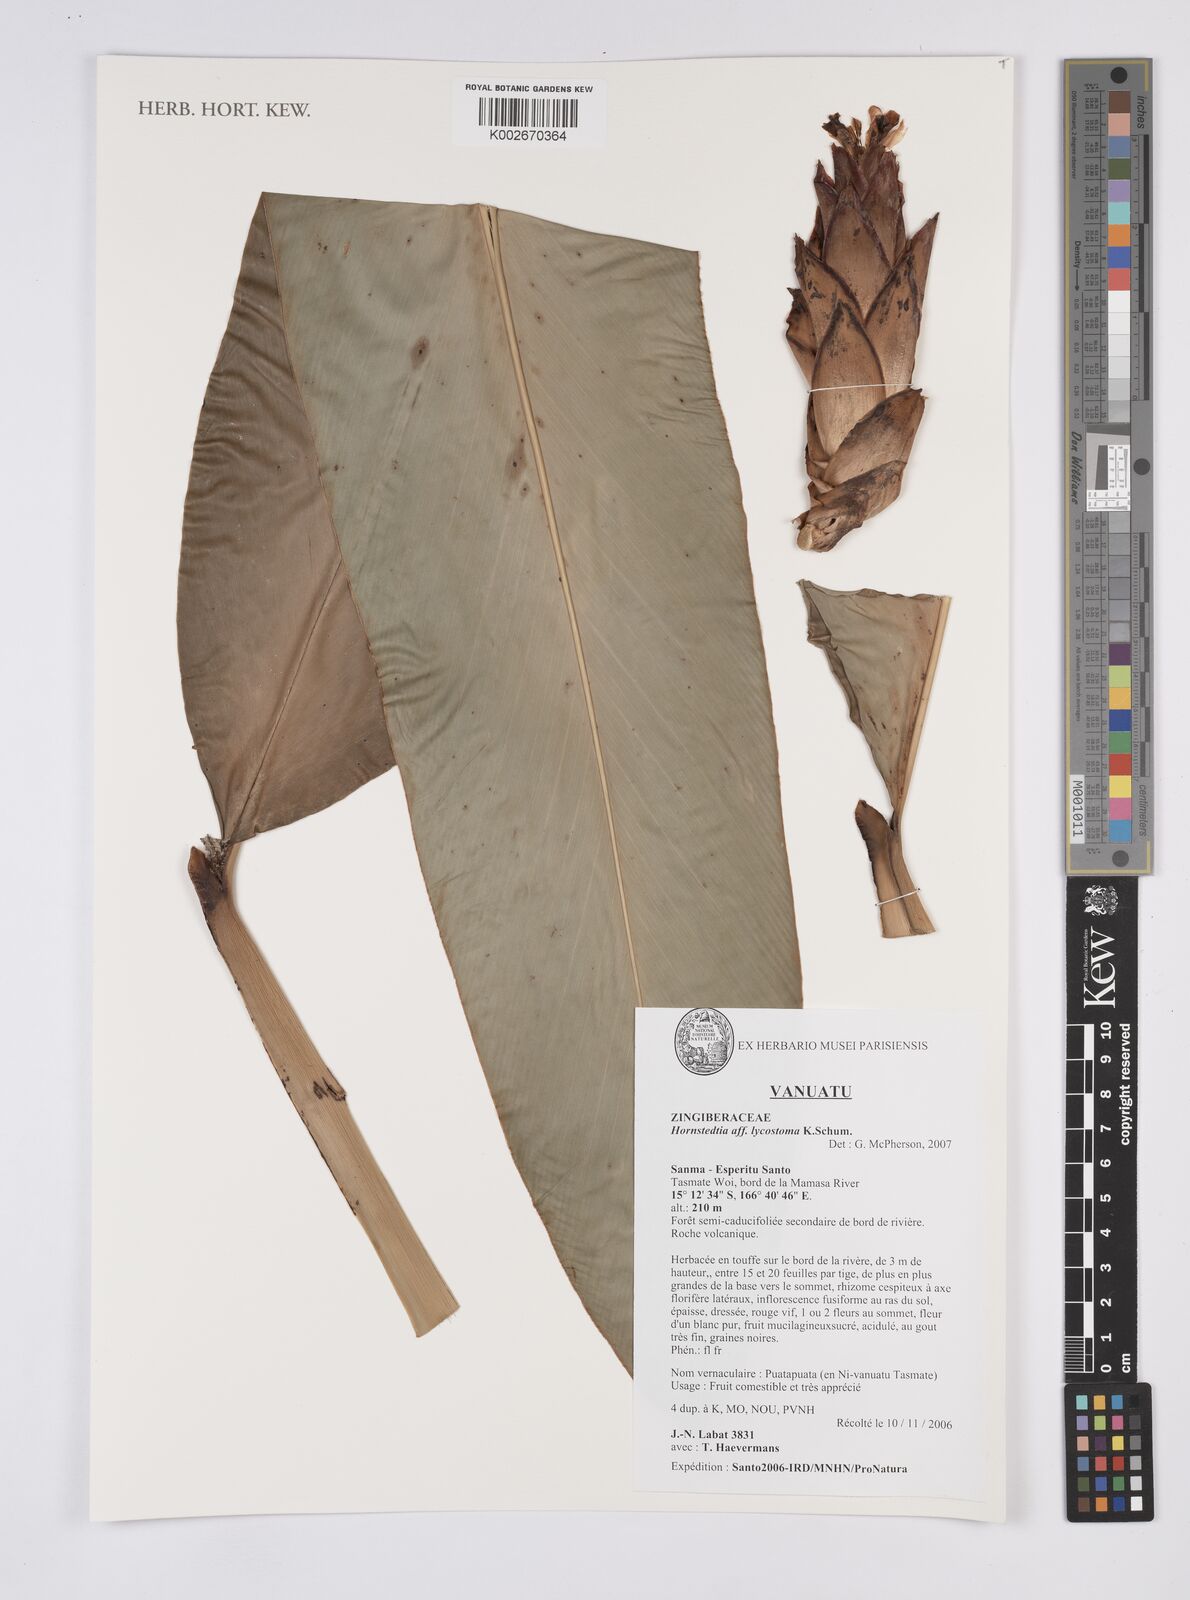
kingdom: Plantae
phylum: Tracheophyta
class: Liliopsida
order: Zingiberales
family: Zingiberaceae
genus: Hornstedtia
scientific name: Hornstedtia scottiana
